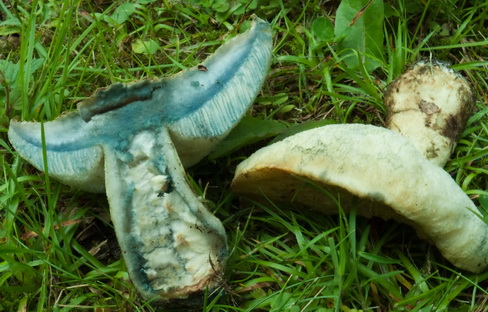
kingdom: Fungi
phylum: Basidiomycota
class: Agaricomycetes
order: Boletales
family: Gyroporaceae
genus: Gyroporus
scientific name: Gyroporus cyanescens
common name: blånende kammerrørhat
